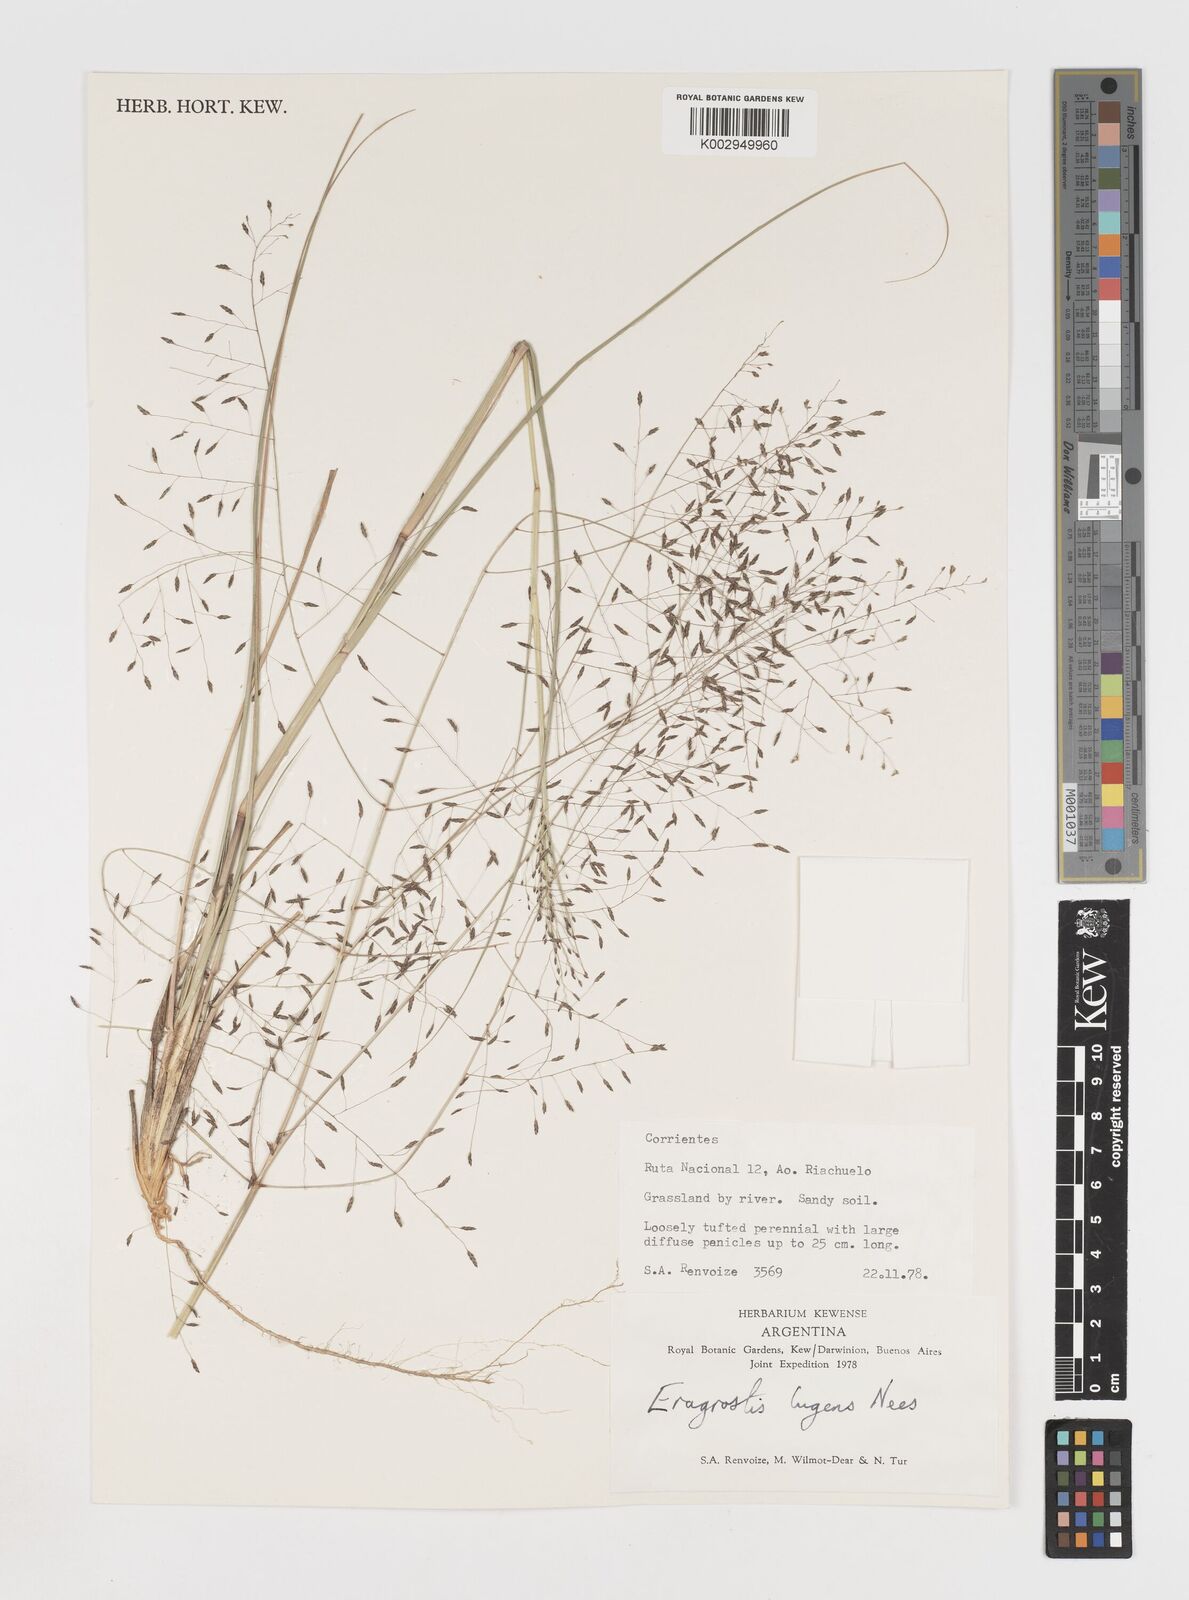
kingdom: Plantae
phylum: Tracheophyta
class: Liliopsida
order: Poales
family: Poaceae
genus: Eragrostis
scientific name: Eragrostis
